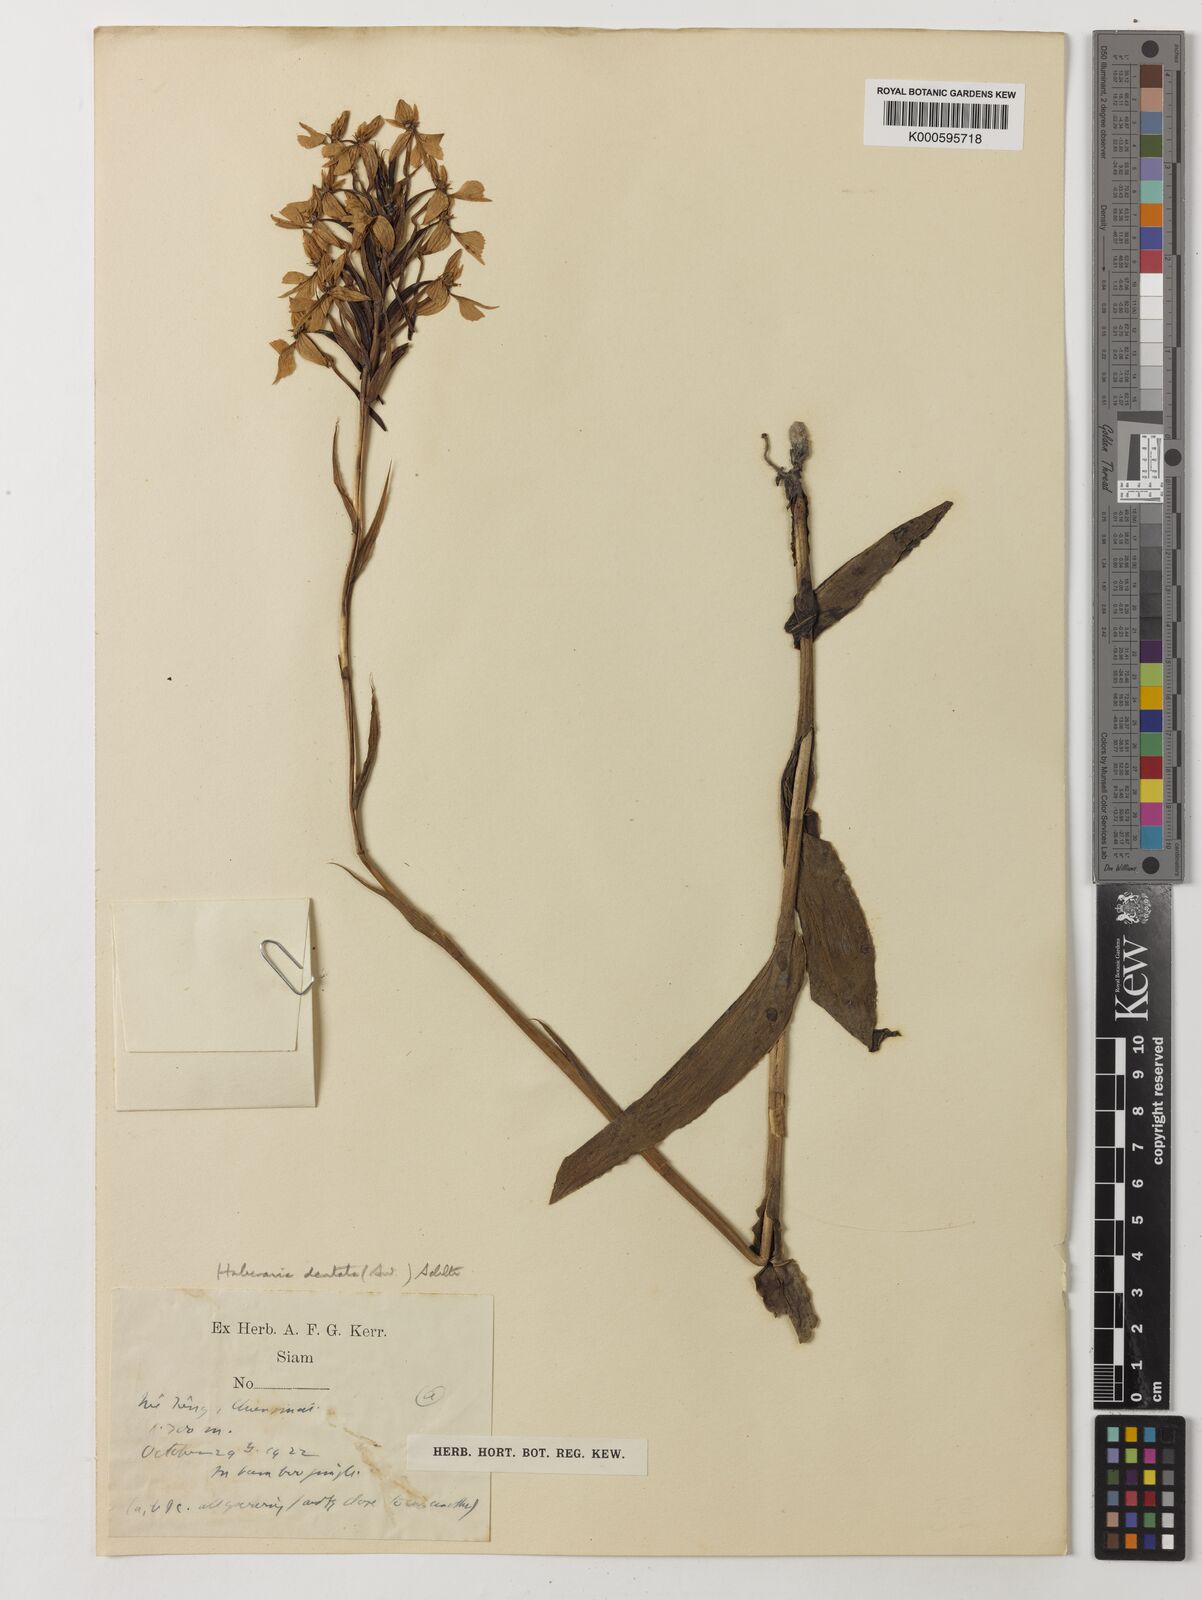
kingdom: Plantae
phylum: Tracheophyta
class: Liliopsida
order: Asparagales
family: Orchidaceae
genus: Habenaria
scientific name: Habenaria dentata
